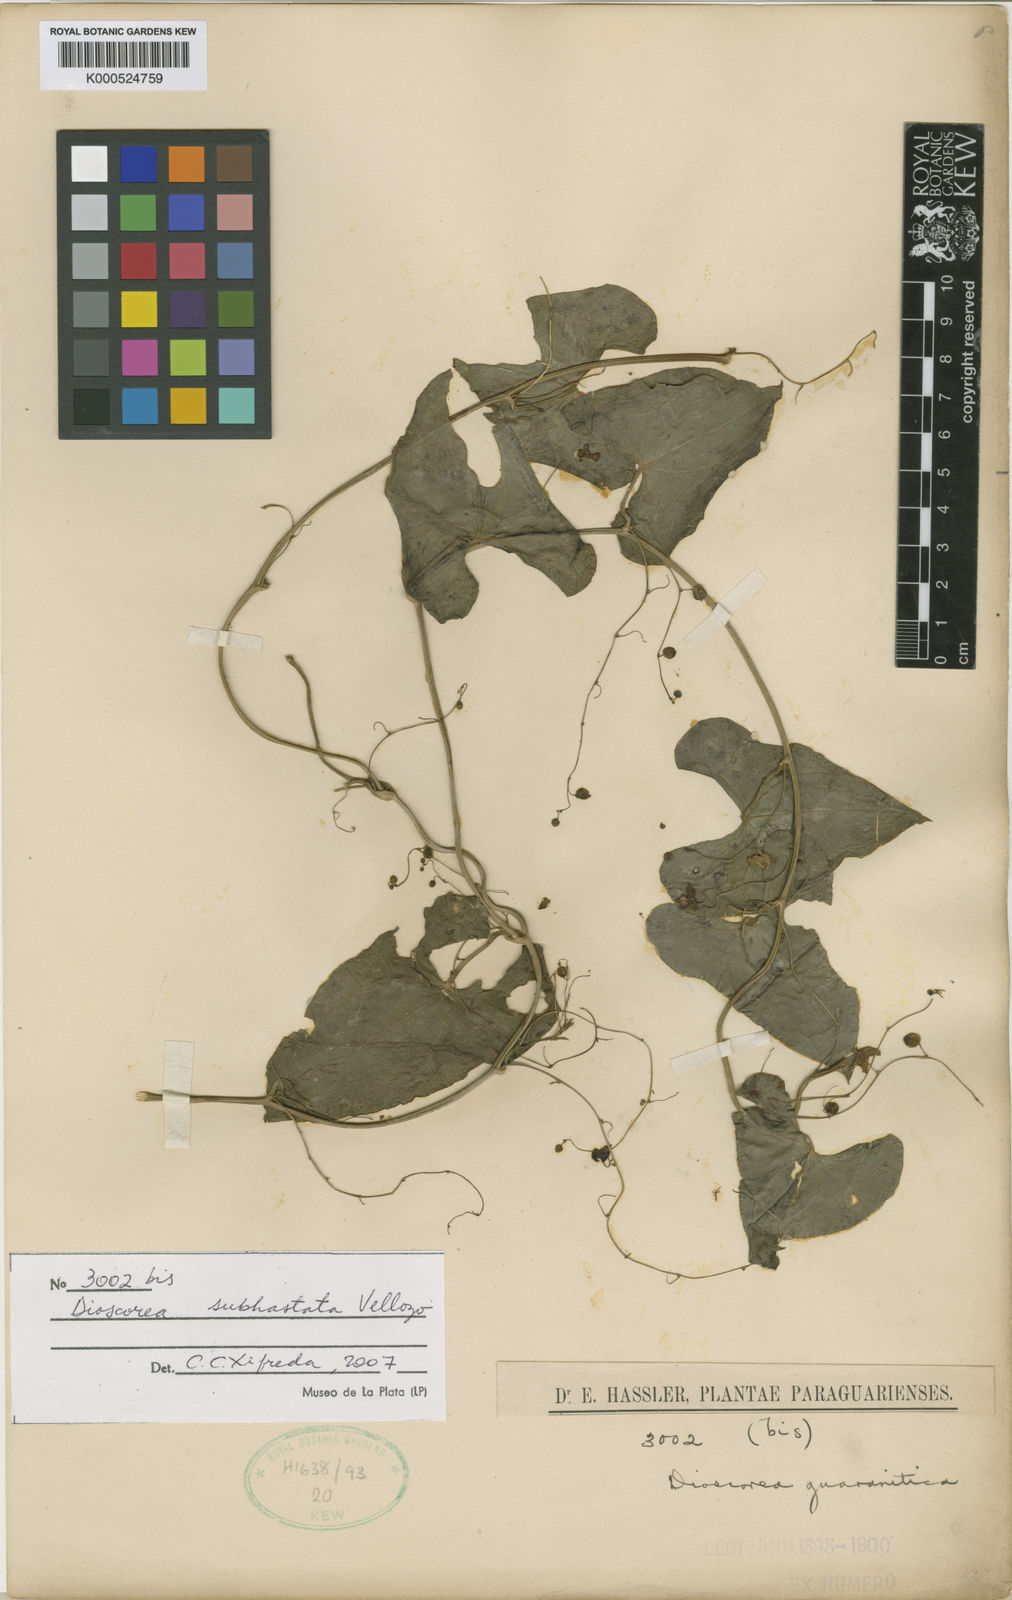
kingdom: Plantae
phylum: Tracheophyta
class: Liliopsida
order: Dioscoreales
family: Dioscoreaceae
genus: Dioscorea
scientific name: Dioscorea subhastata
